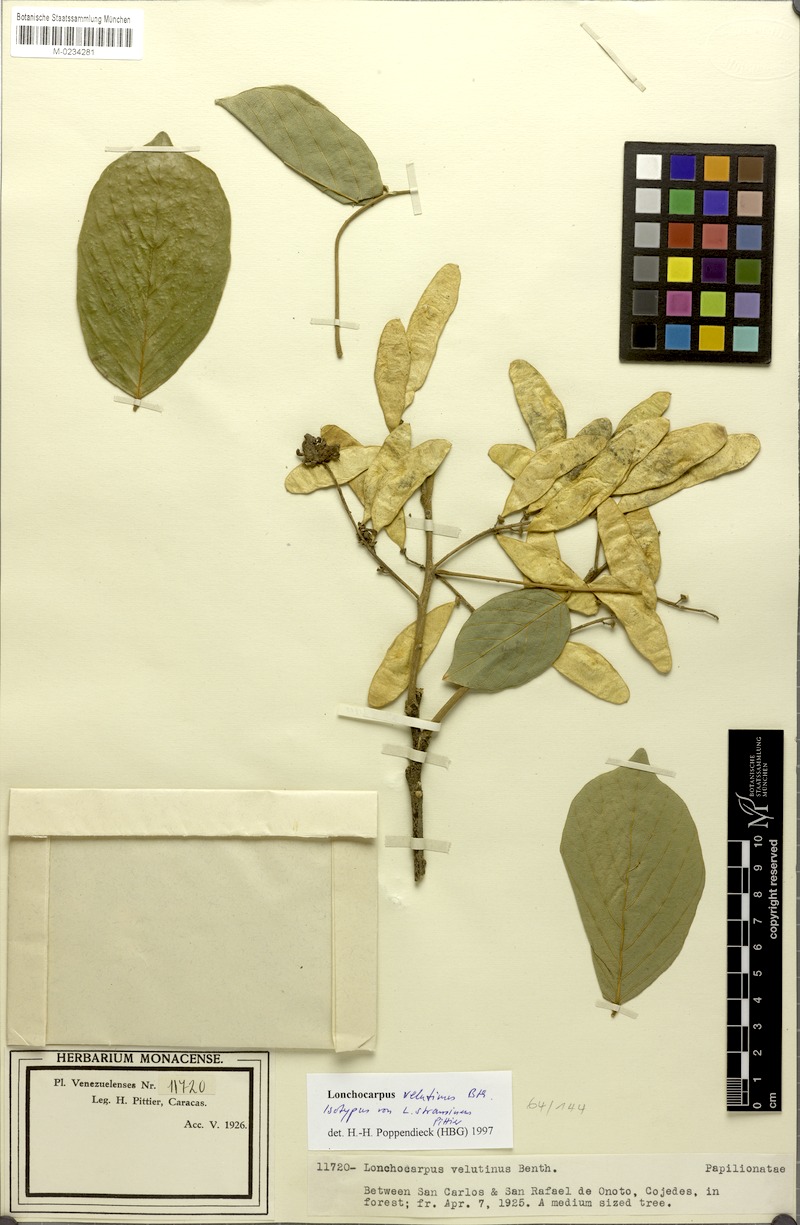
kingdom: Plantae
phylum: Tracheophyta
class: Magnoliopsida
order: Fabales
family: Fabaceae
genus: Lonchocarpus
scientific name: Lonchocarpus velutinus
